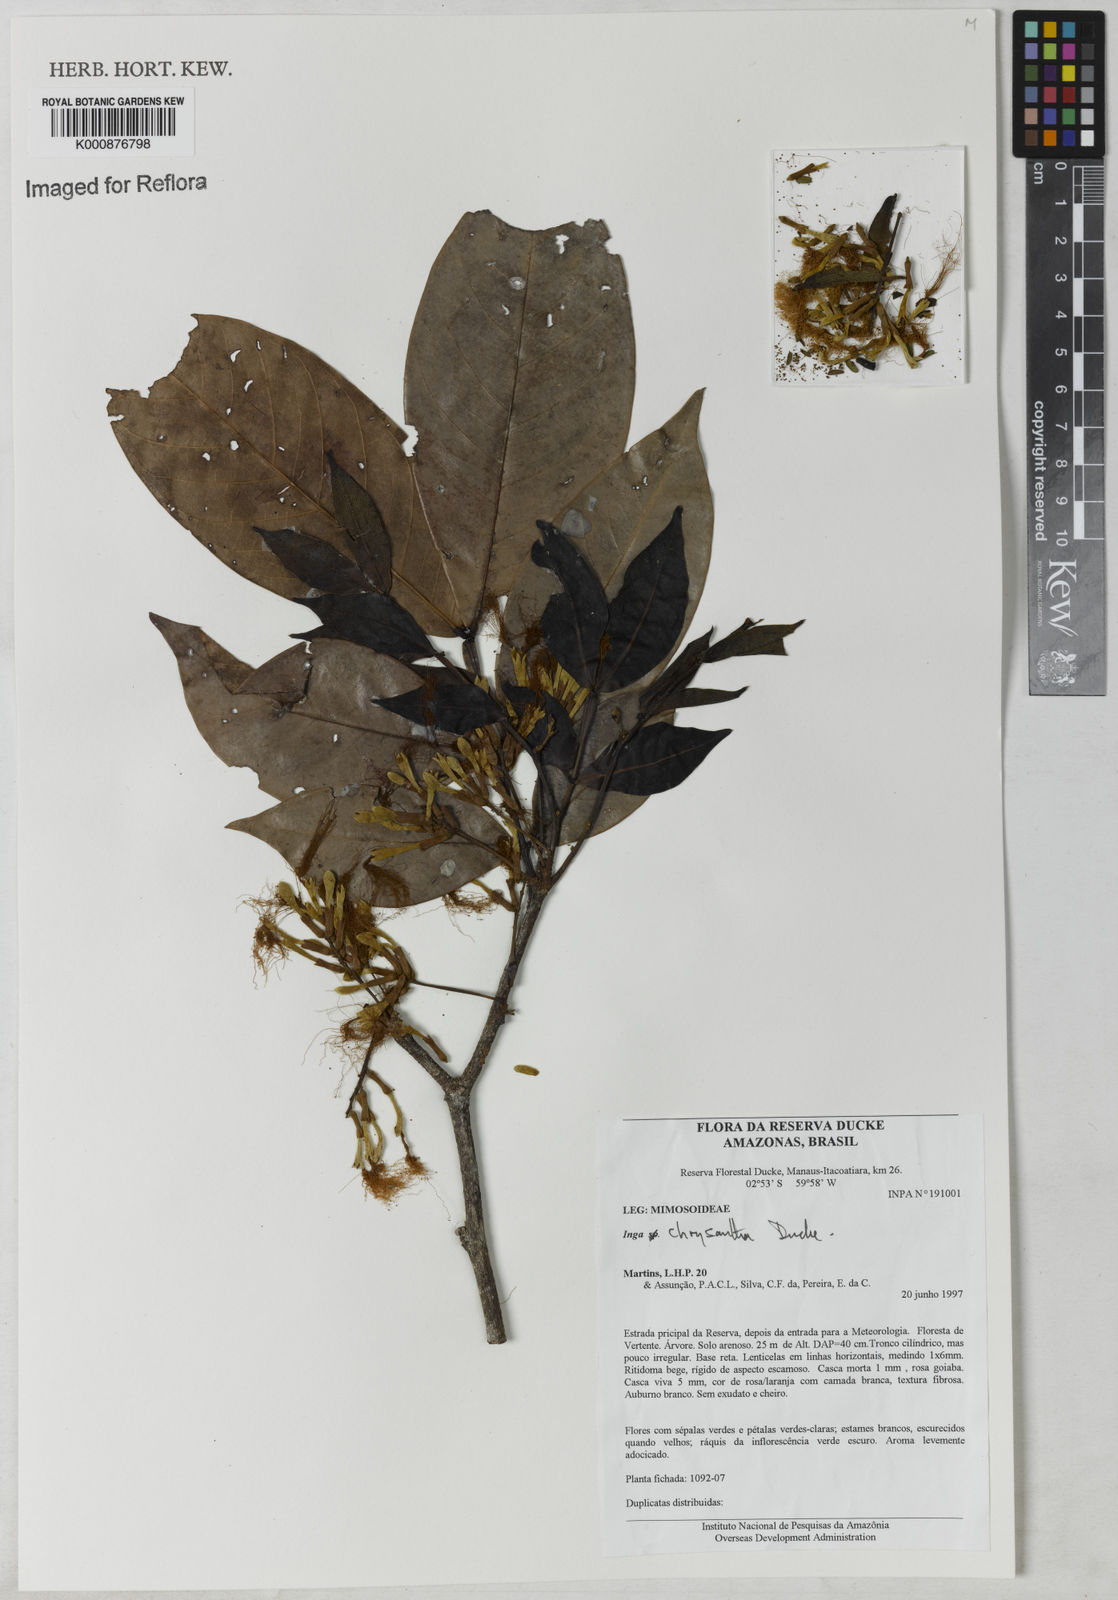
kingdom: Plantae
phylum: Tracheophyta
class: Magnoliopsida
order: Fabales
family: Fabaceae
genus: Inga
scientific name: Inga chrysantha
